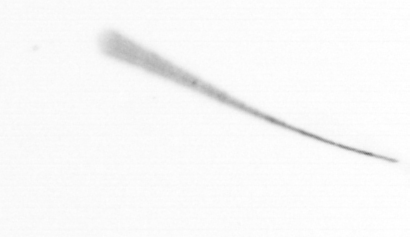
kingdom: Chromista
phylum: Ochrophyta
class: Bacillariophyceae
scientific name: Bacillariophyceae
